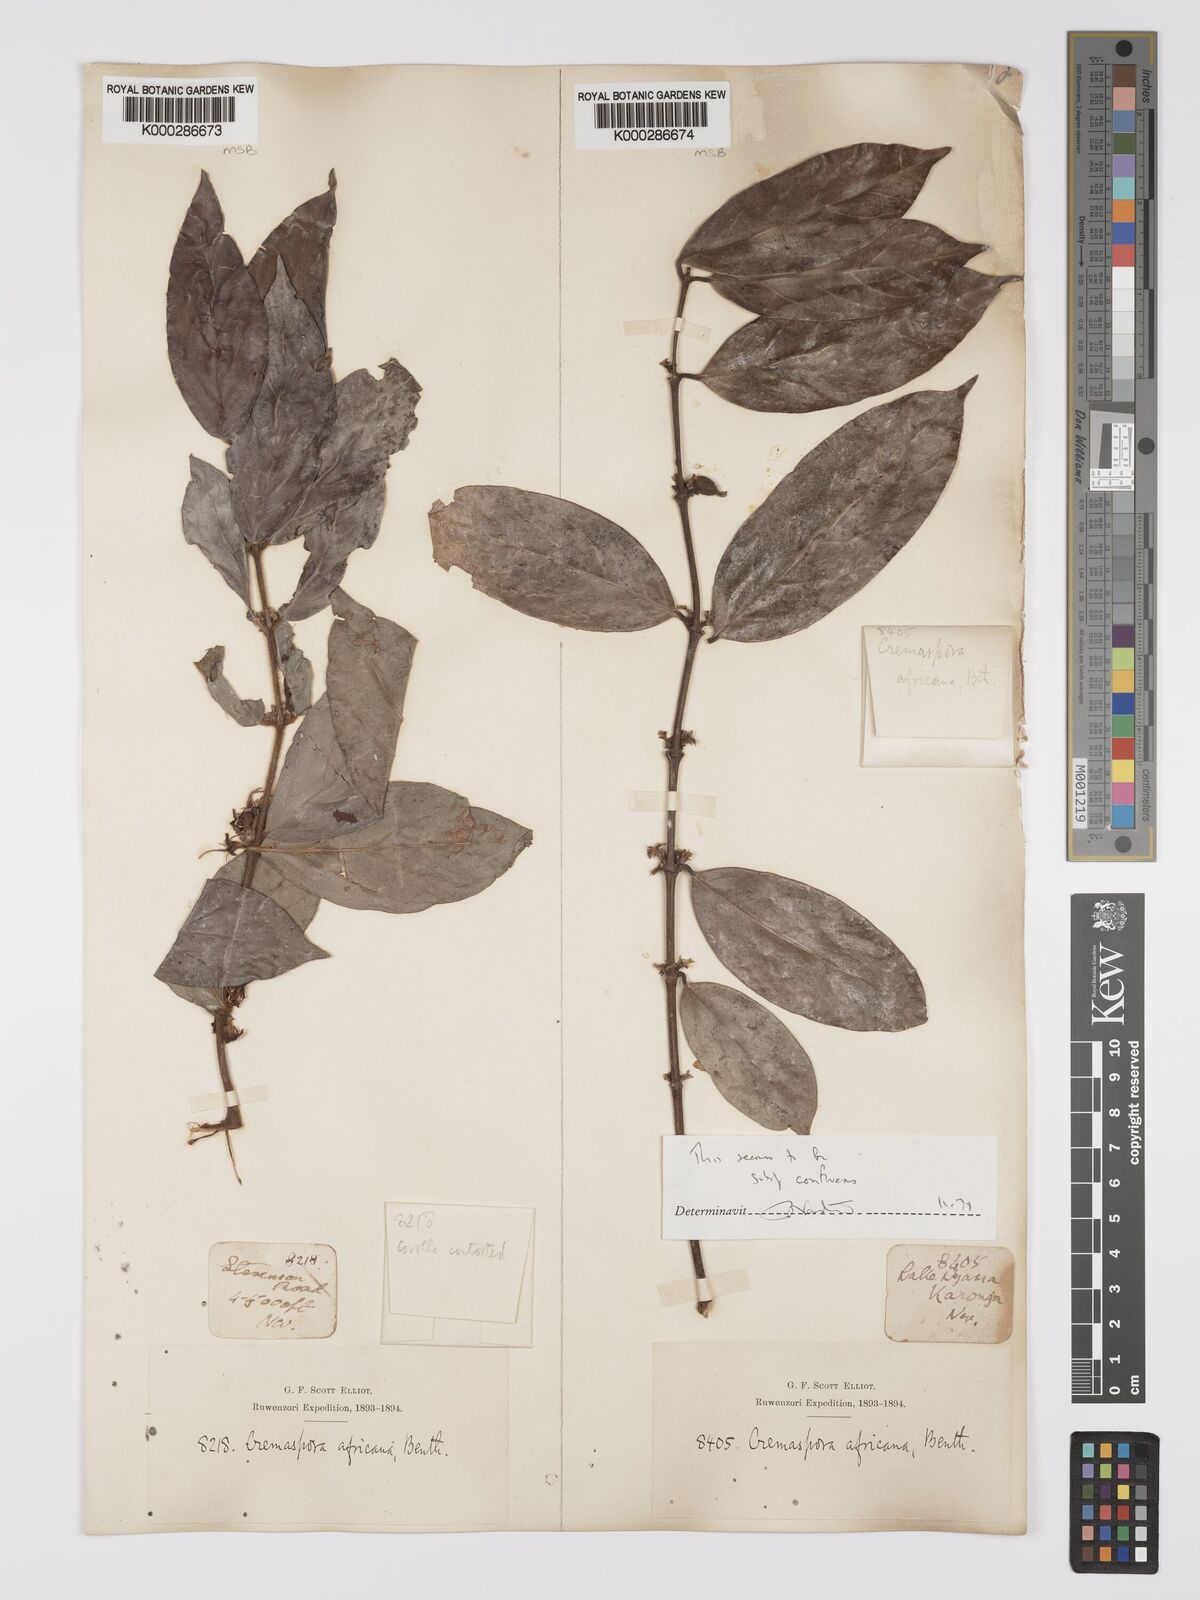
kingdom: Plantae
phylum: Tracheophyta
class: Magnoliopsida
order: Gentianales
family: Rubiaceae
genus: Cremaspora
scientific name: Cremaspora triflora
